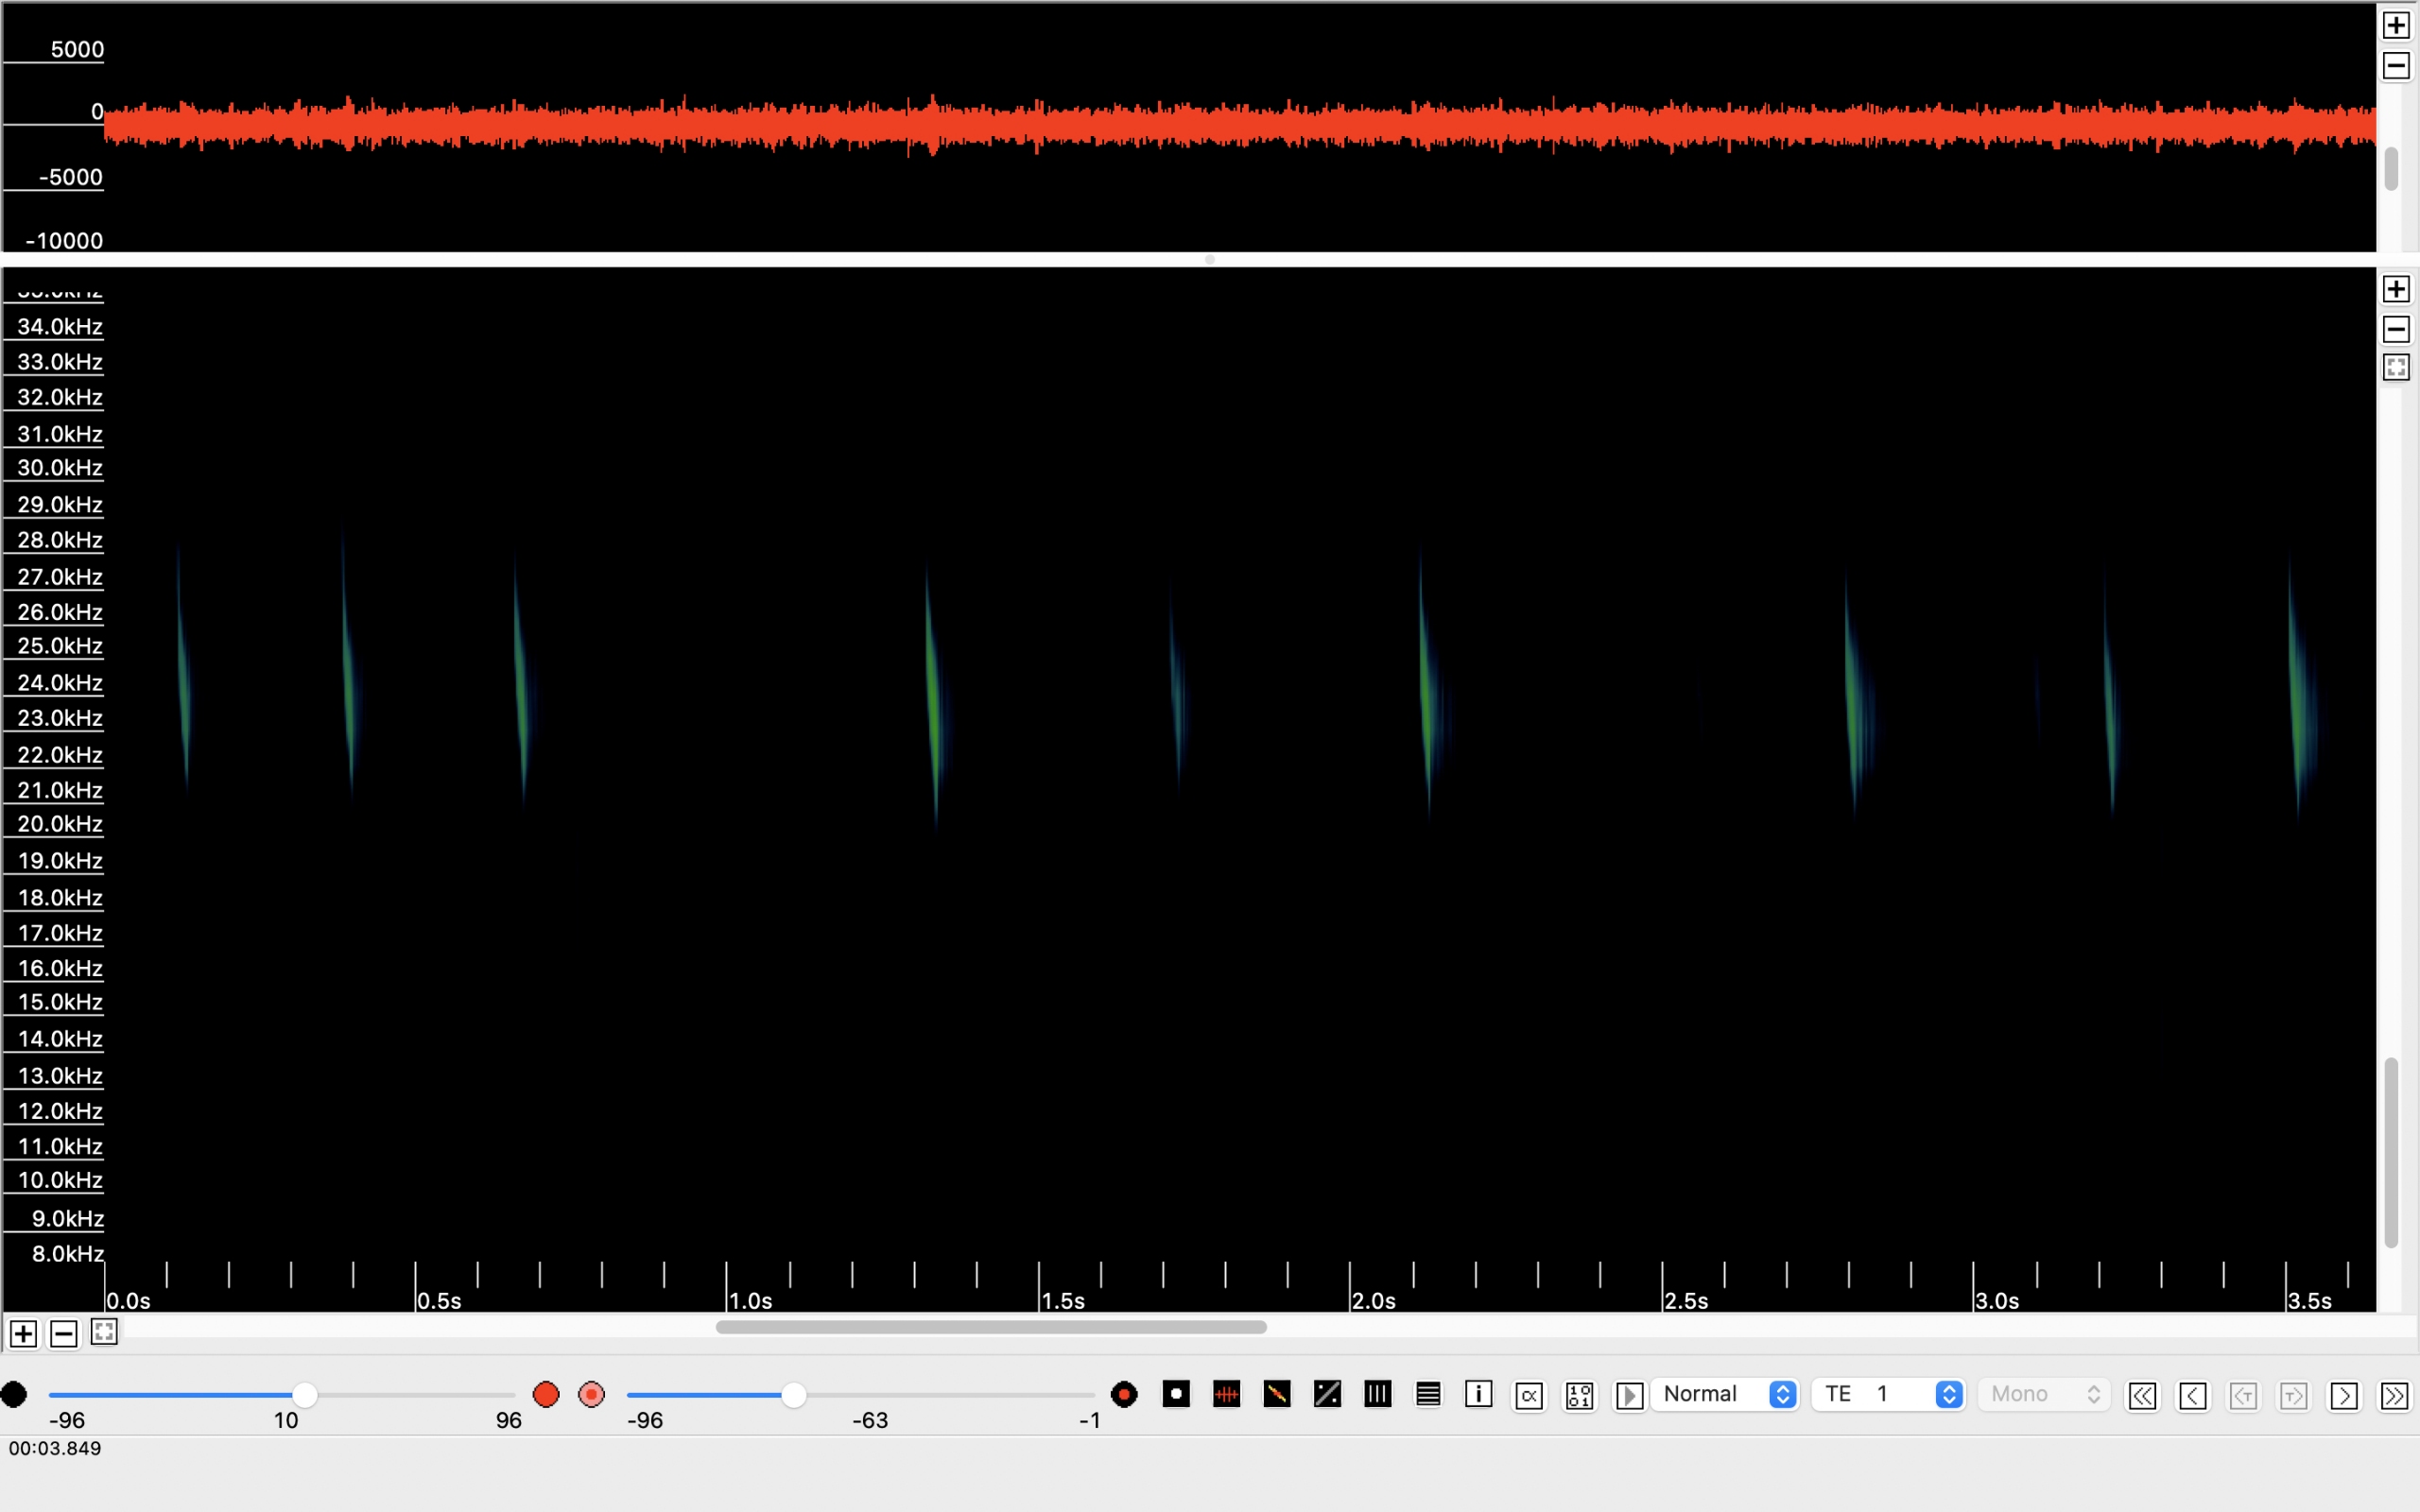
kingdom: Animalia
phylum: Chordata
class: Mammalia
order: Chiroptera
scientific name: Chiroptera
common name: Flagermus
